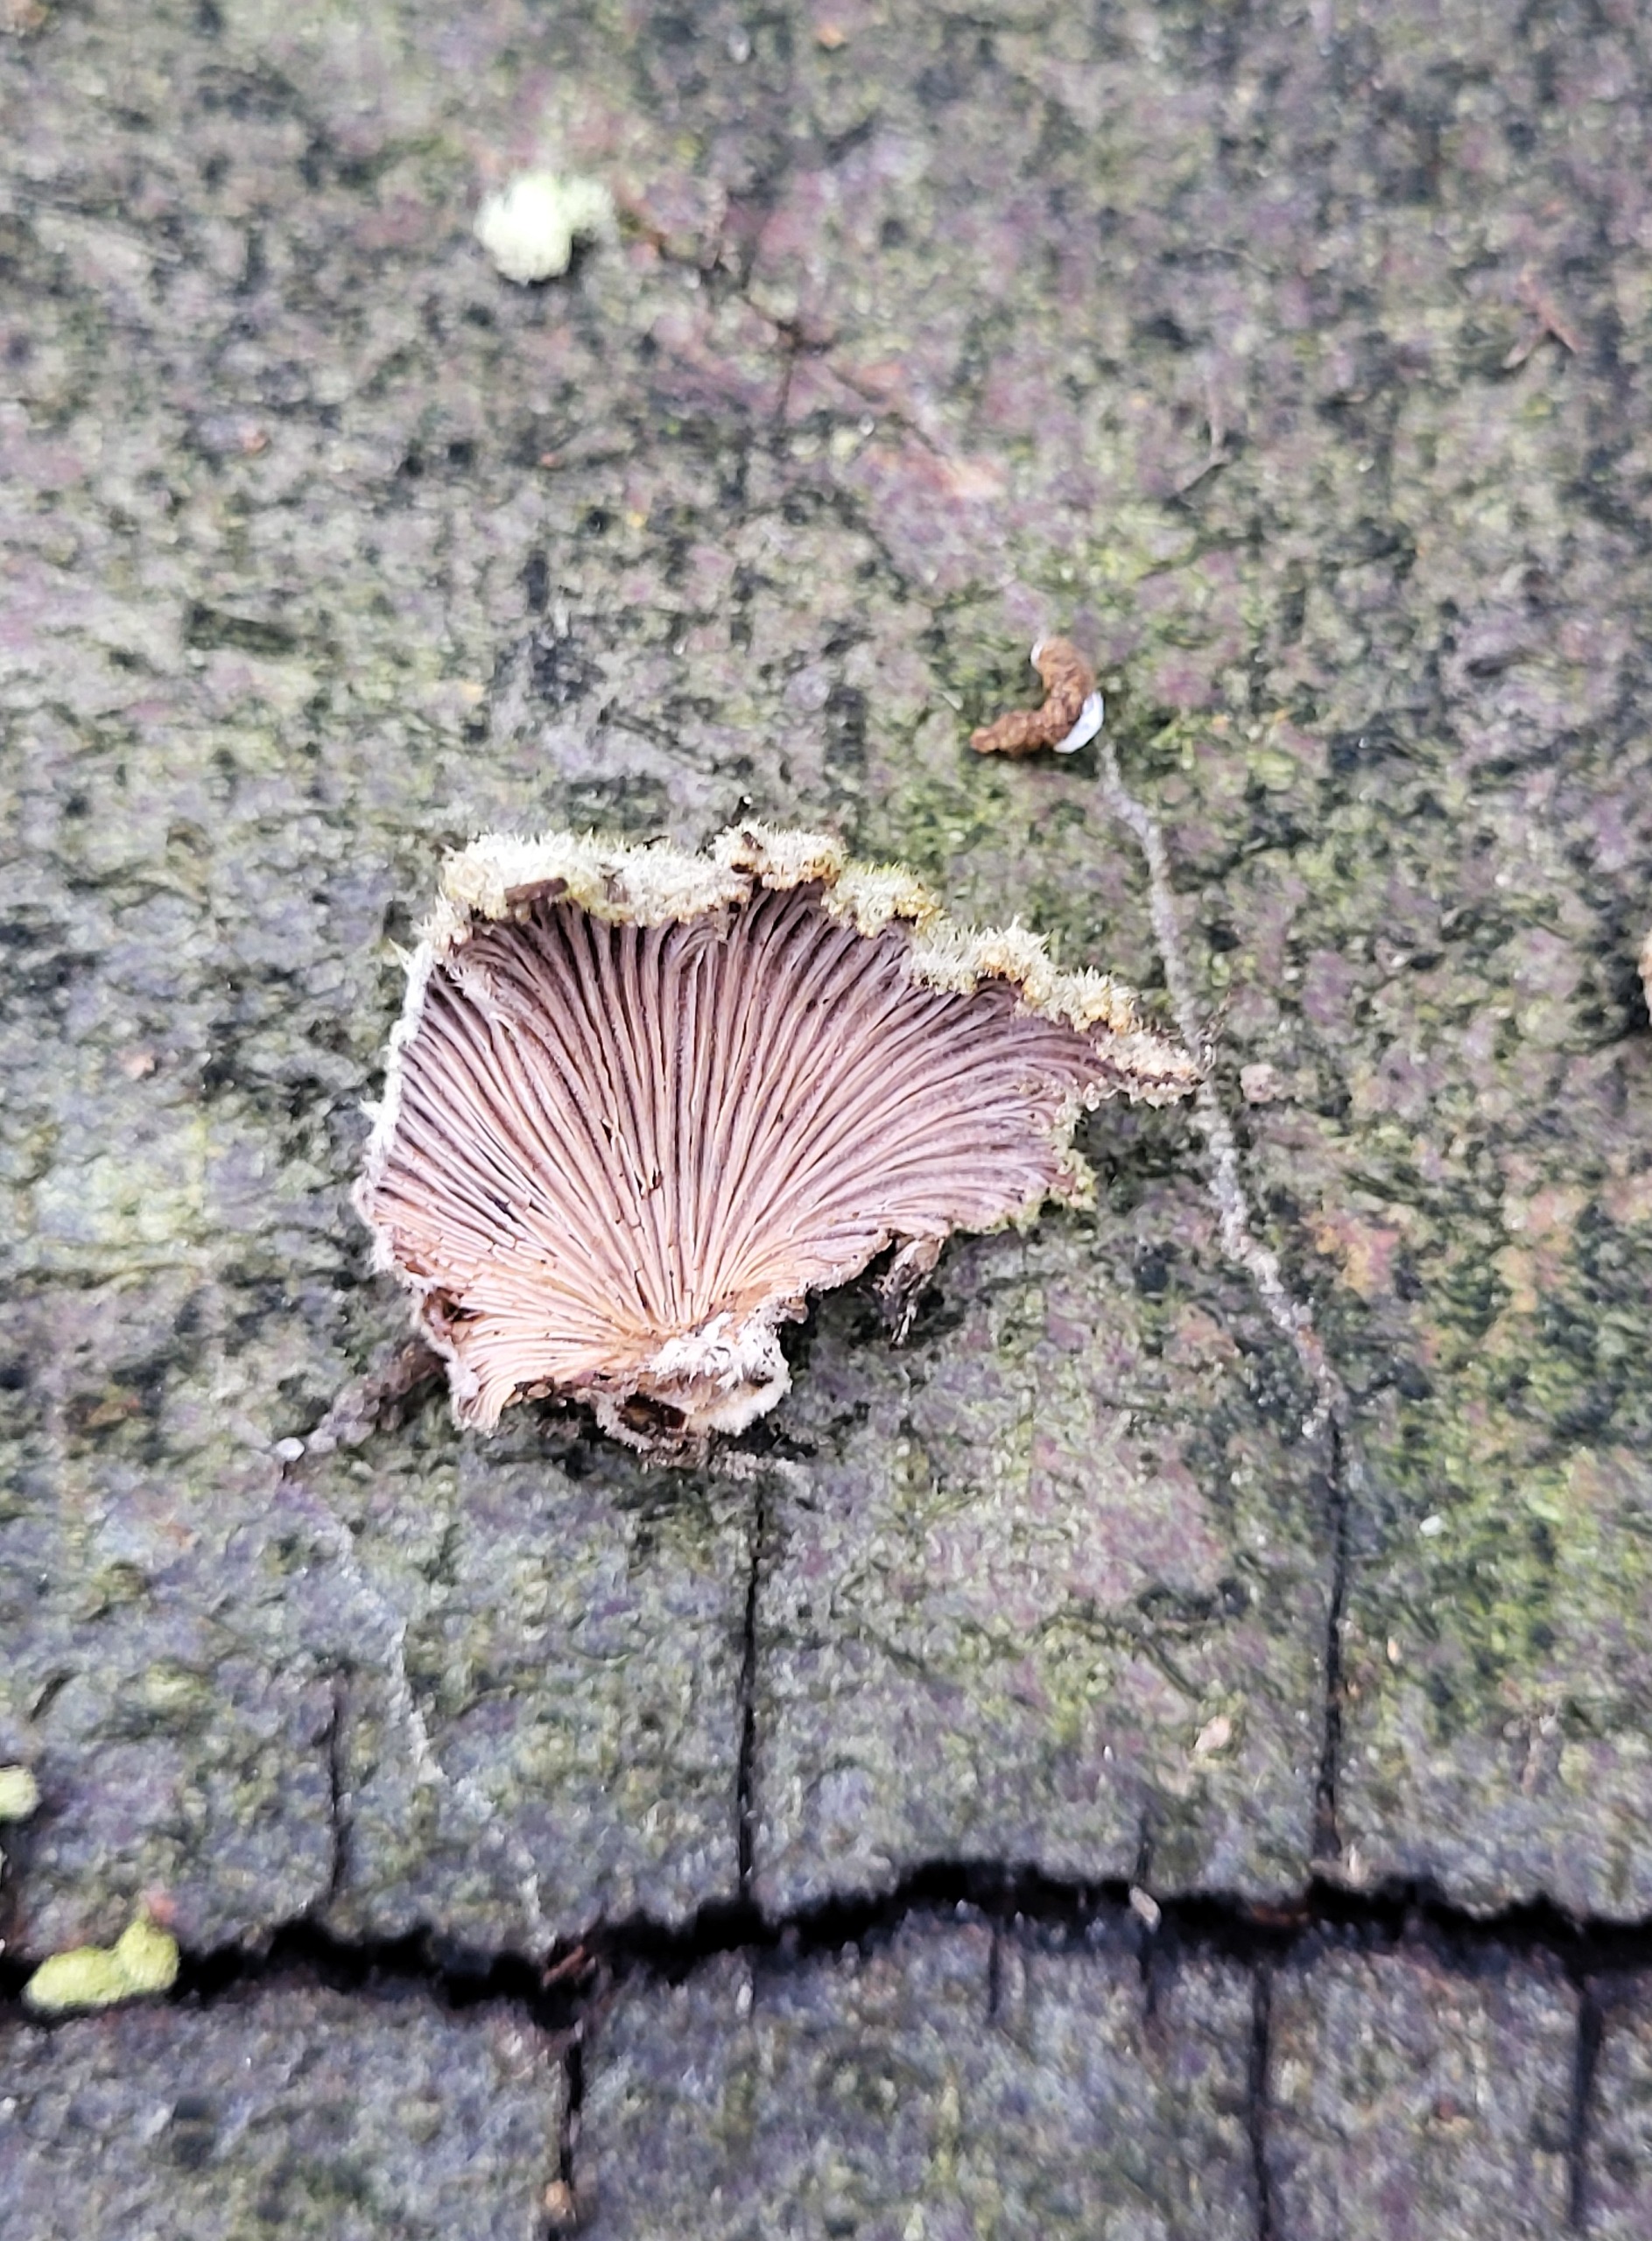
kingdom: Fungi
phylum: Basidiomycota
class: Agaricomycetes
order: Agaricales
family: Schizophyllaceae
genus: Schizophyllum
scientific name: Schizophyllum commune
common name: Kløvblad
